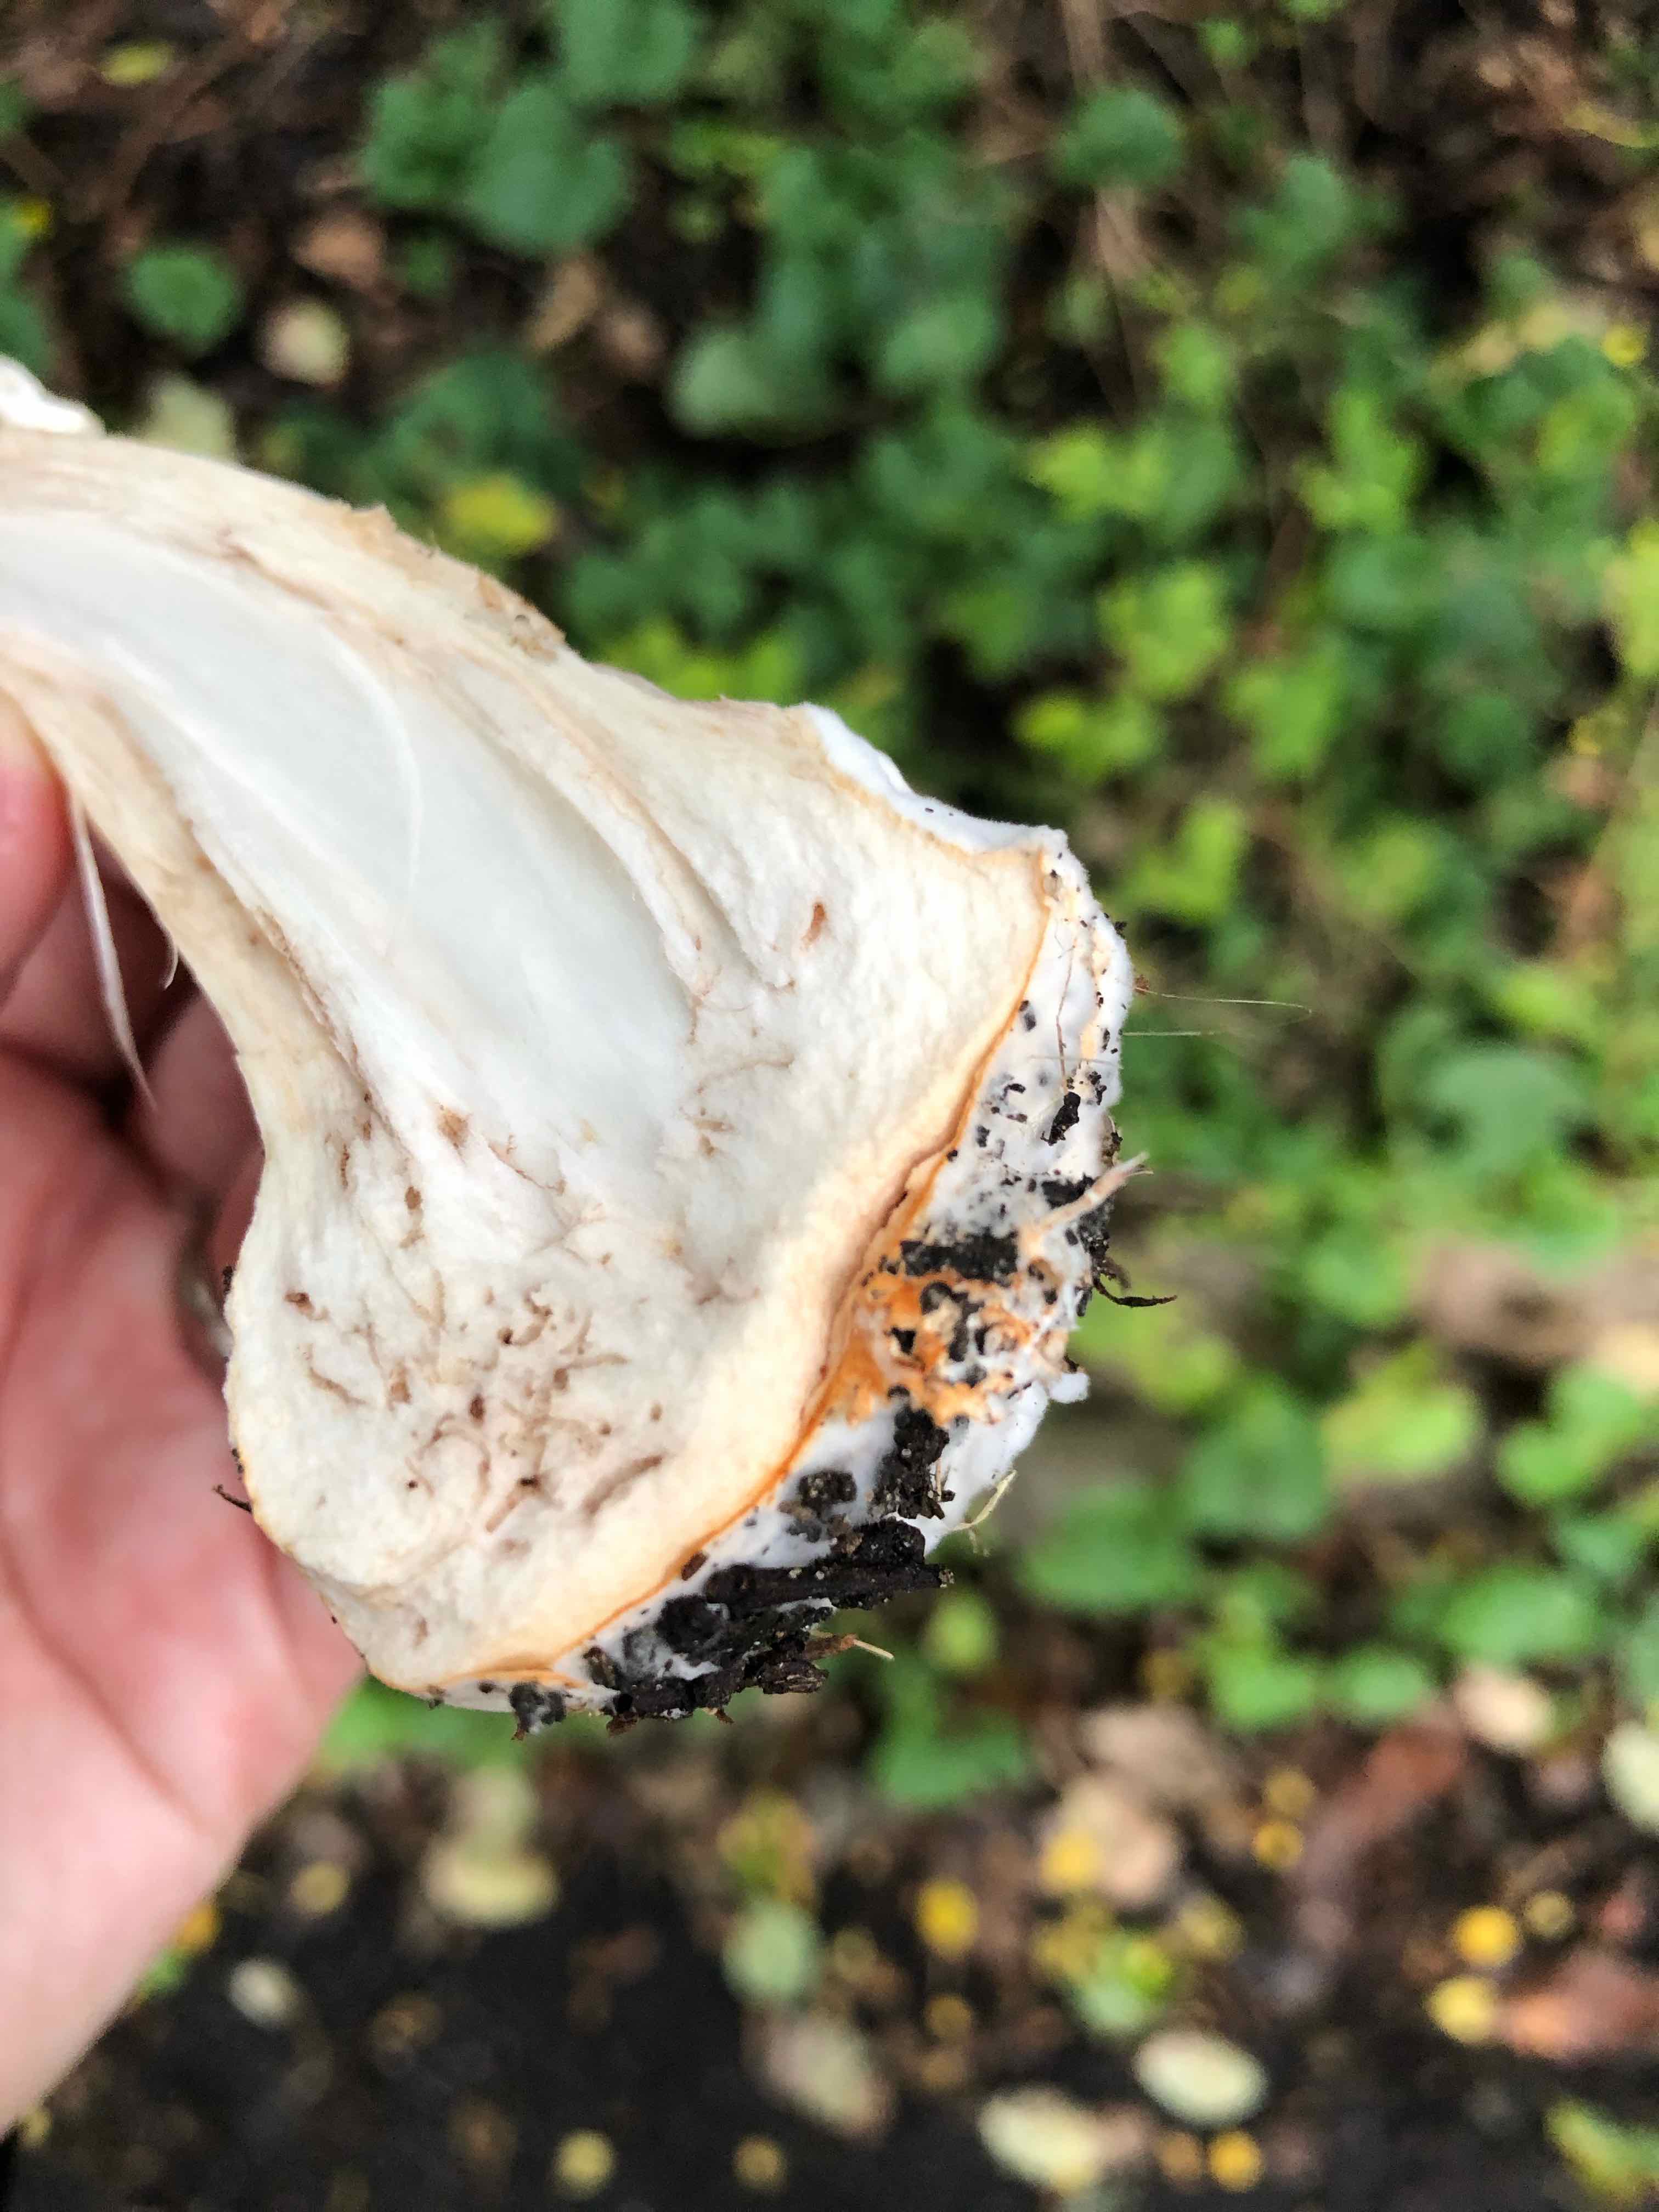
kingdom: Fungi
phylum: Basidiomycota
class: Agaricomycetes
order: Agaricales
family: Agaricaceae
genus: Chlorophyllum
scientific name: Chlorophyllum rhacodes
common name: ægte rabarberhat
